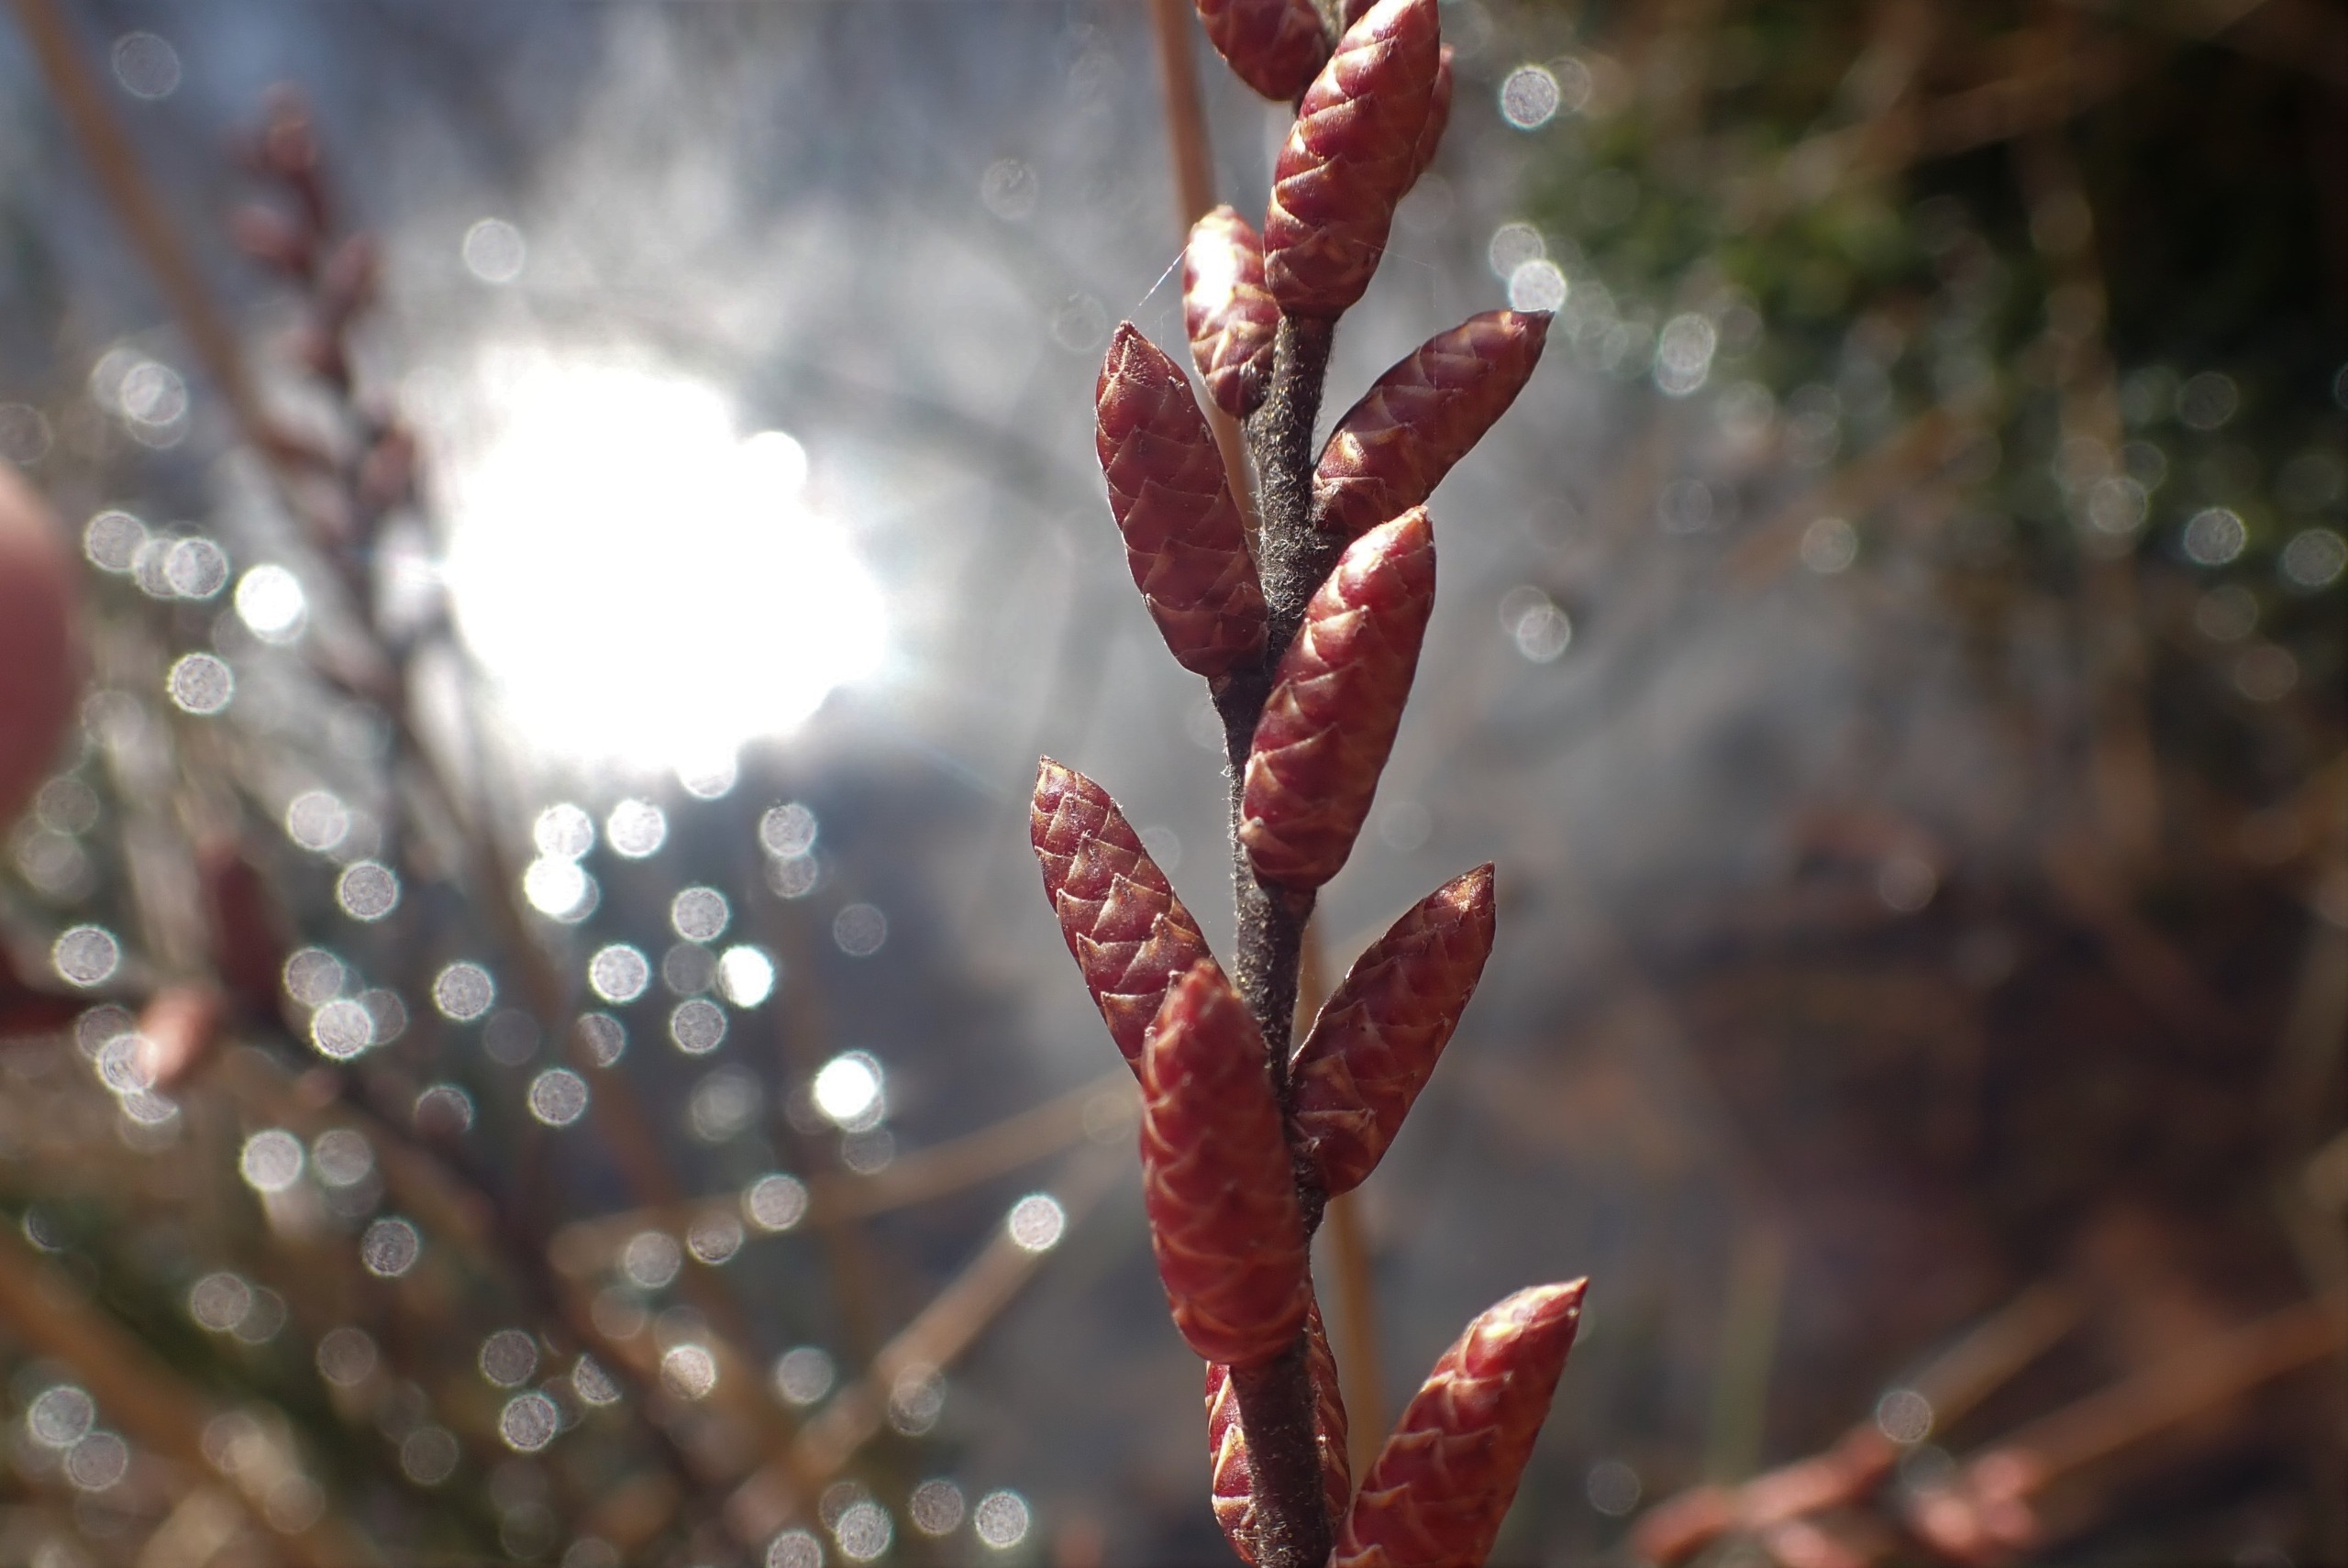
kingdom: Plantae
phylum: Tracheophyta
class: Magnoliopsida
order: Fagales
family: Myricaceae
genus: Myrica
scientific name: Myrica gale
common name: Pors
